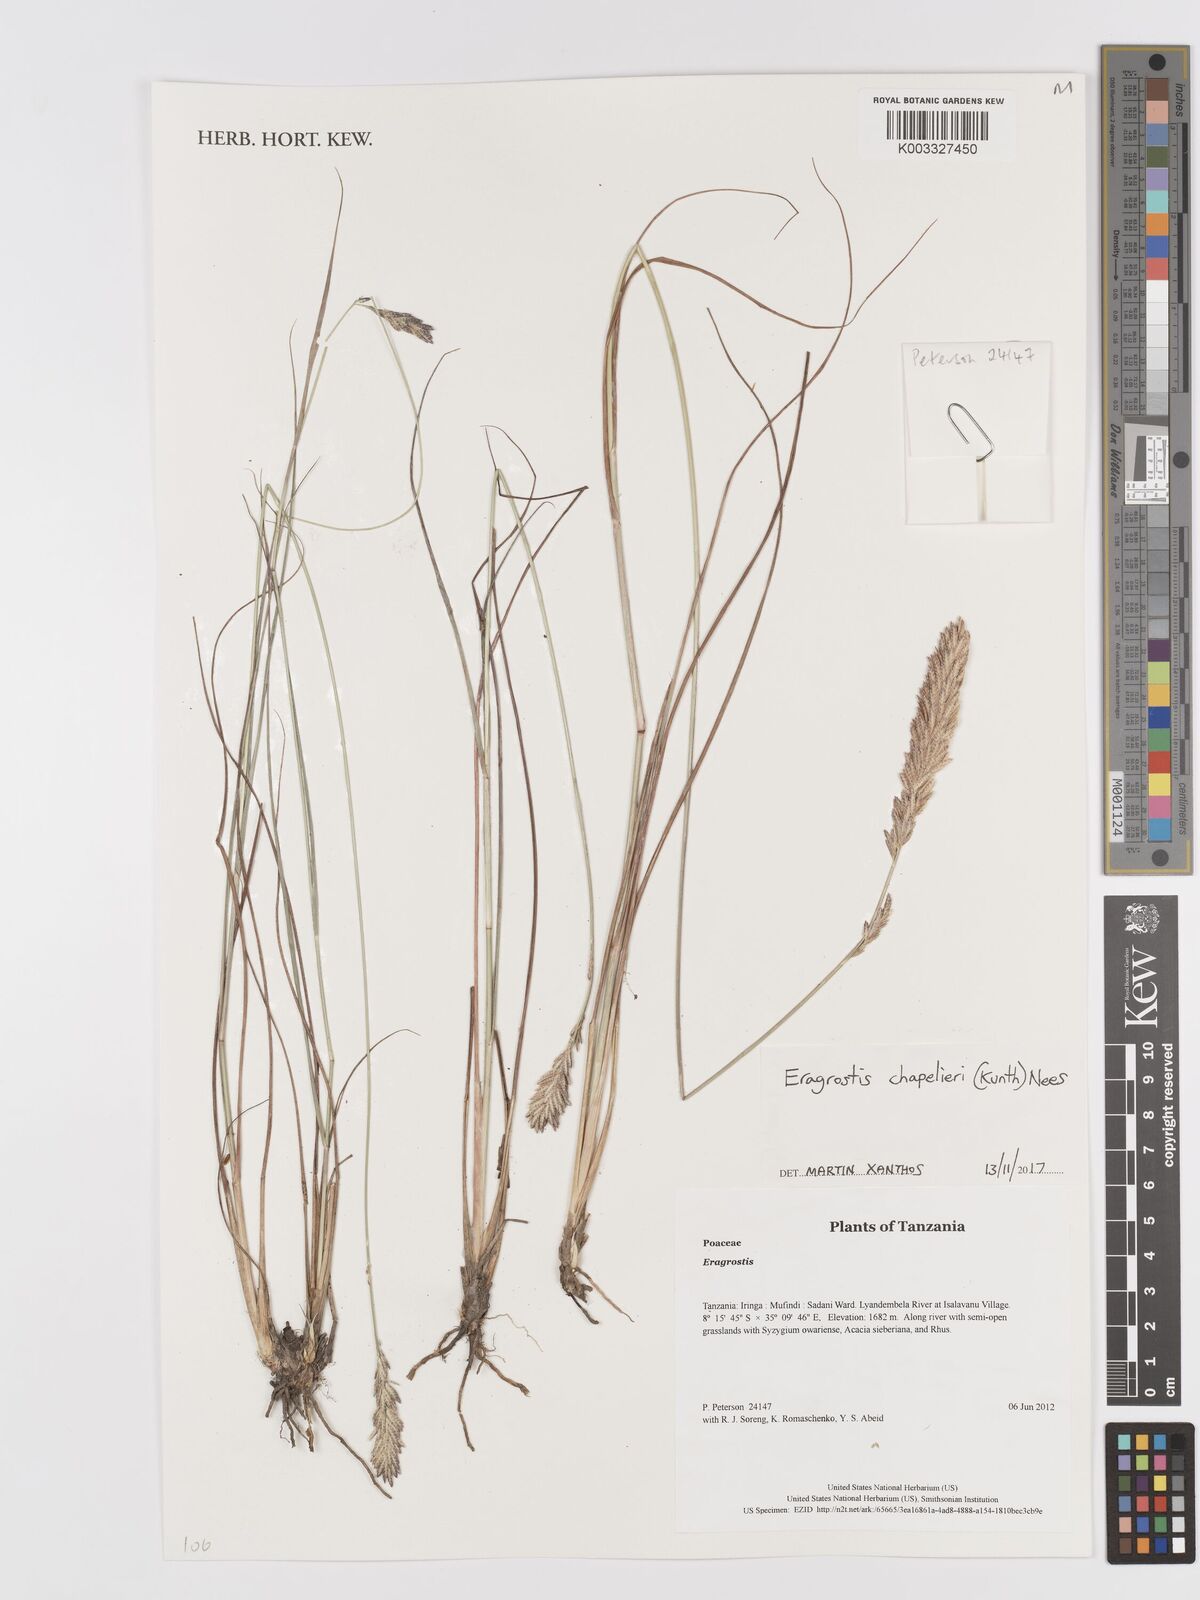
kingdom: Plantae
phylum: Tracheophyta
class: Liliopsida
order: Poales
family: Poaceae
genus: Eragrostis
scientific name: Eragrostis chapelieri
